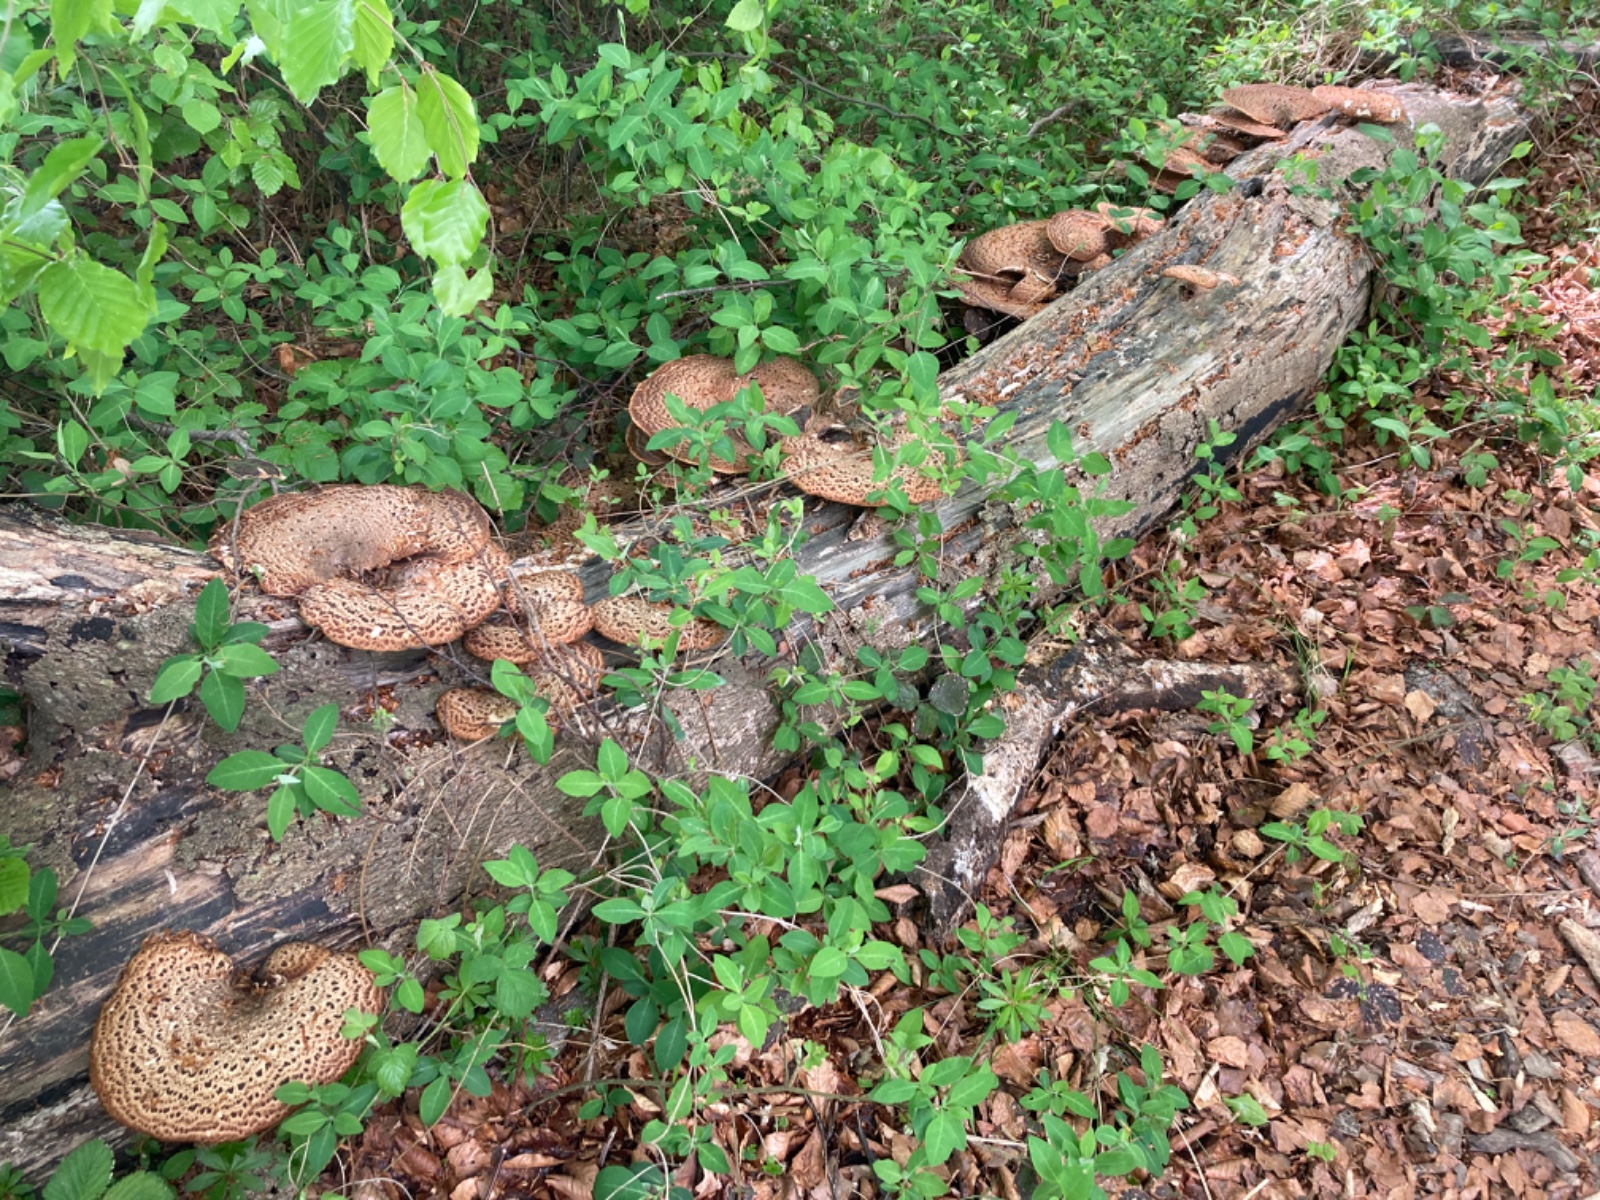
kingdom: Fungi
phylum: Basidiomycota
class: Agaricomycetes
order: Polyporales
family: Polyporaceae
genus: Cerioporus
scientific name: Cerioporus squamosus
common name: skællet stilkporesvamp
